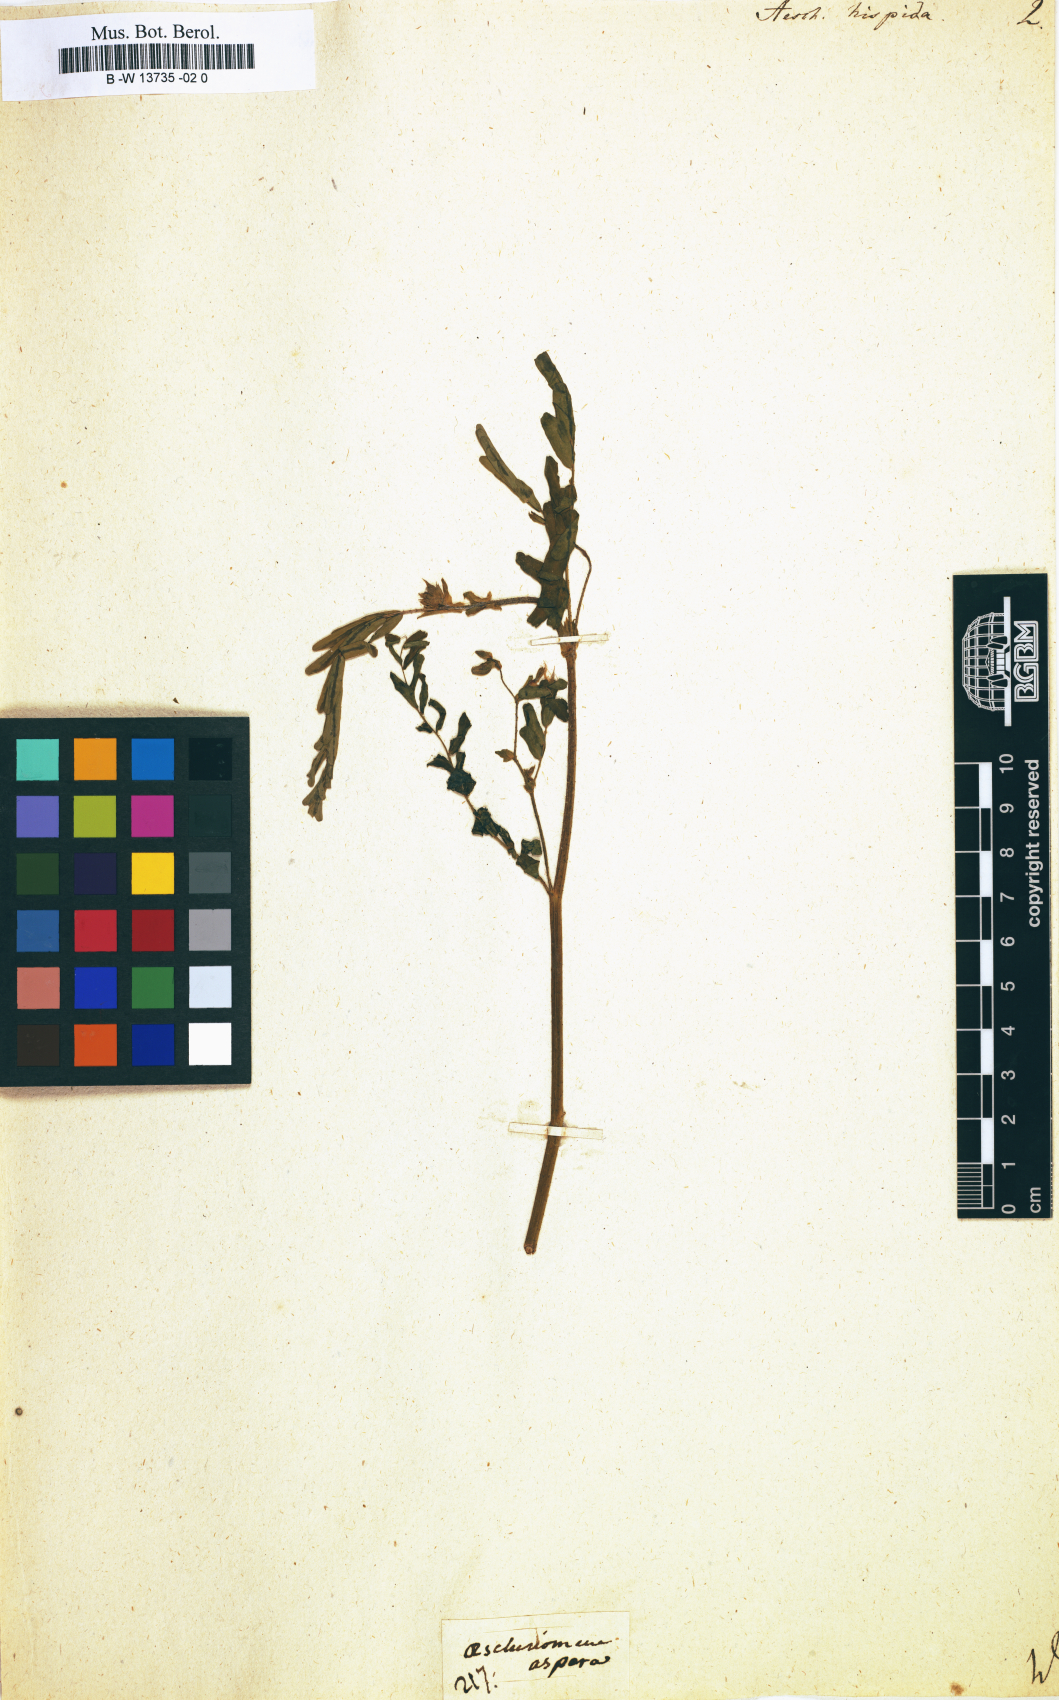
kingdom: Plantae
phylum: Tracheophyta
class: Magnoliopsida
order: Fabales
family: Fabaceae
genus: Aeschynomene
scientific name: Aeschynomene virginica
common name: Sensitive joint-vetch
